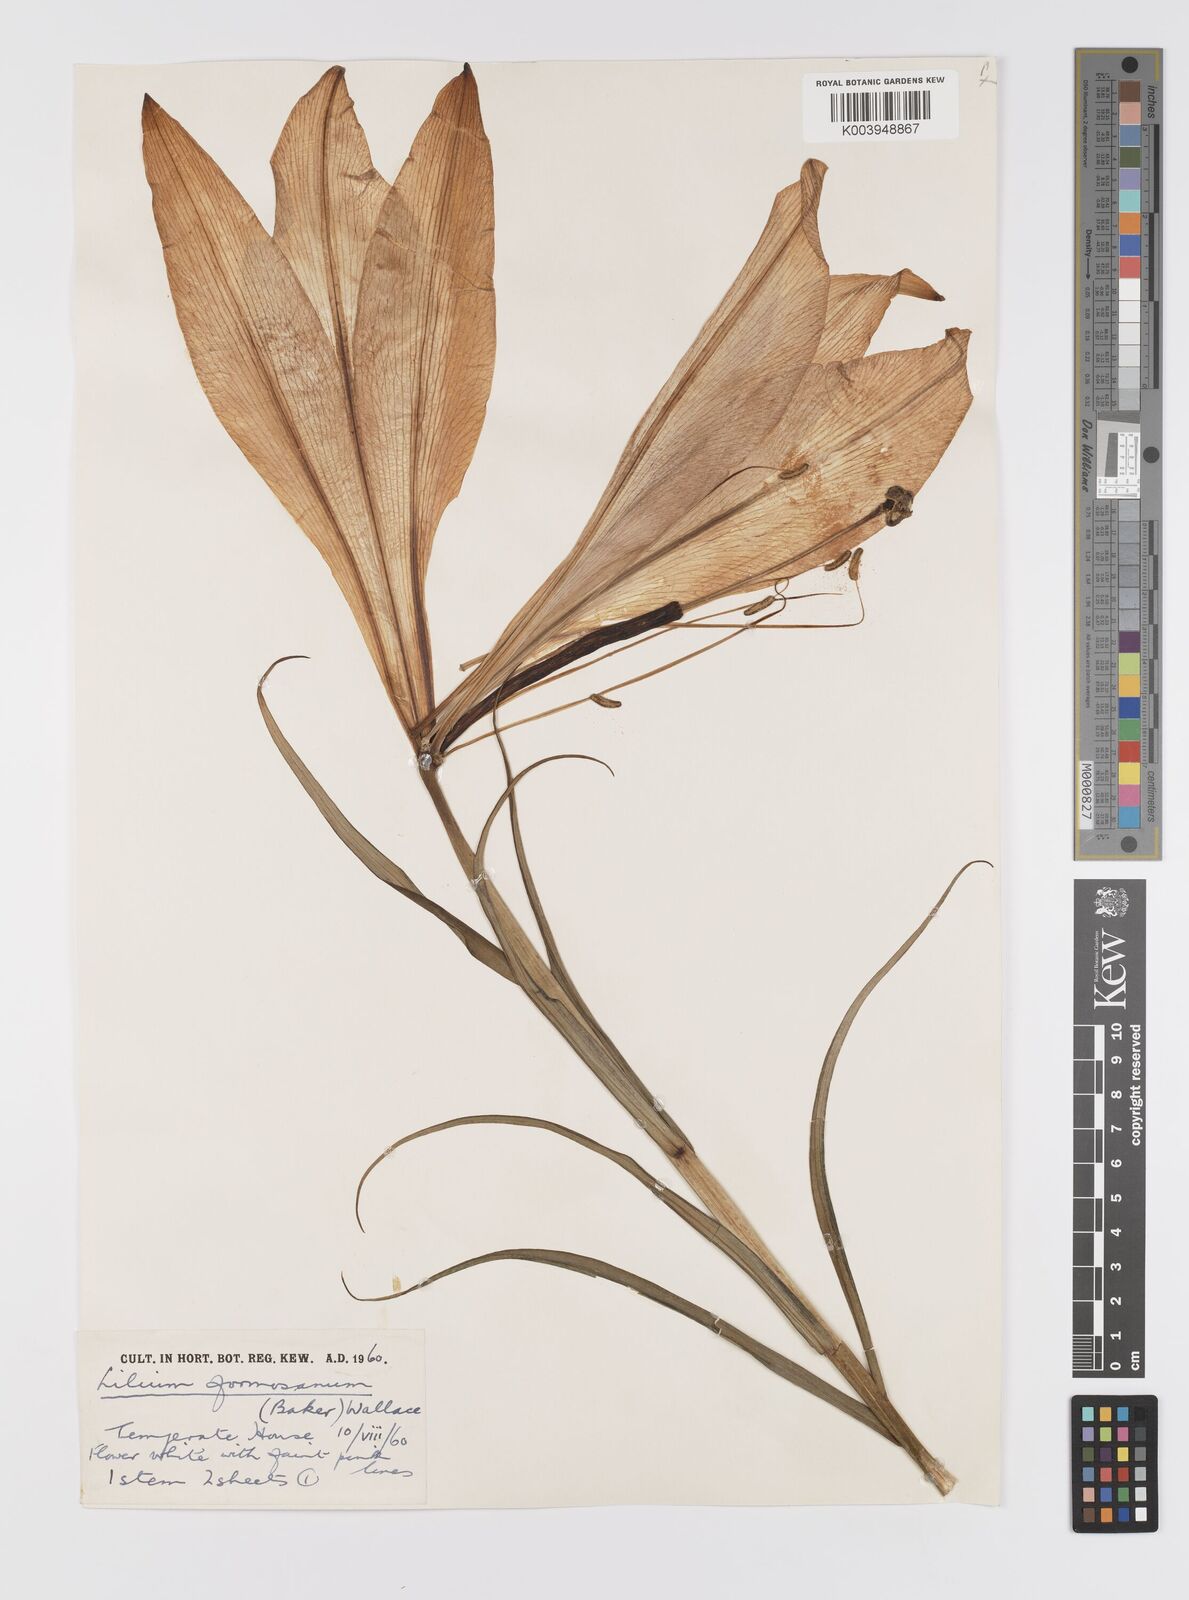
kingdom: Plantae
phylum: Tracheophyta
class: Liliopsida
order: Liliales
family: Liliaceae
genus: Lilium
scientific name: Lilium formosanum
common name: Formosa lily
